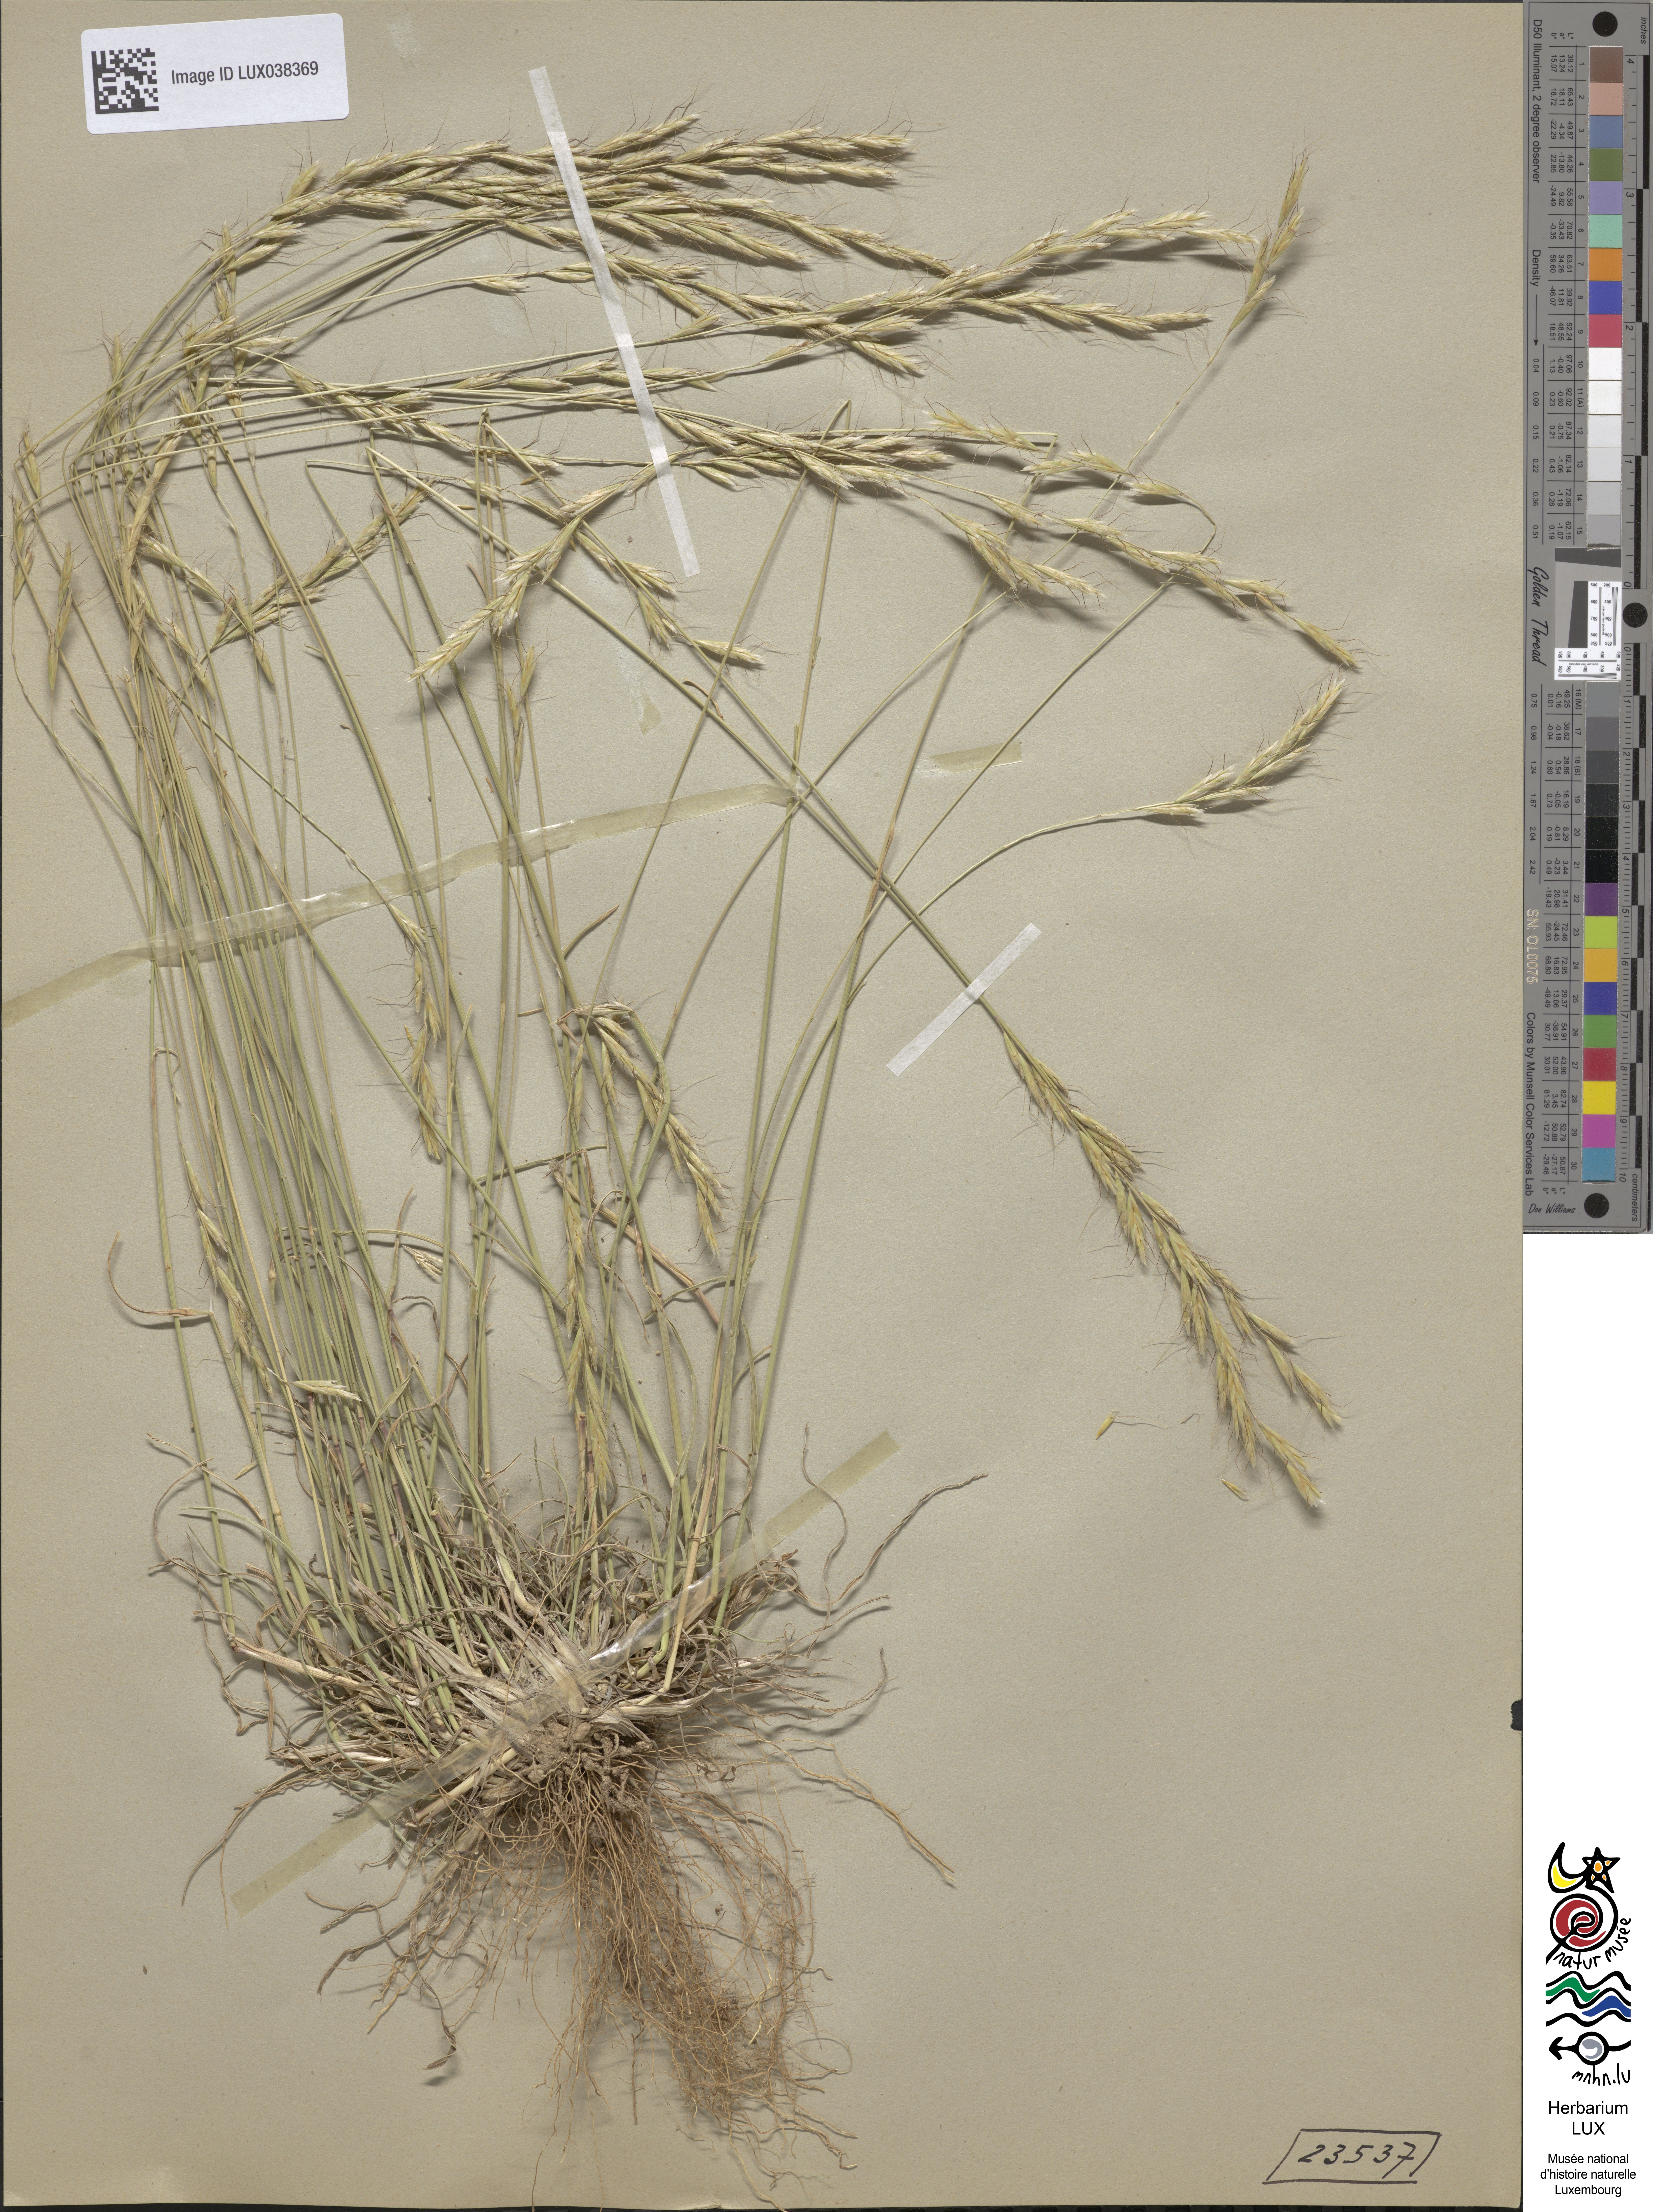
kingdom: Plantae
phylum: Tracheophyta
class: Liliopsida
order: Poales
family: Poaceae
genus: Helictochloa
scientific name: Helictochloa bromoides
